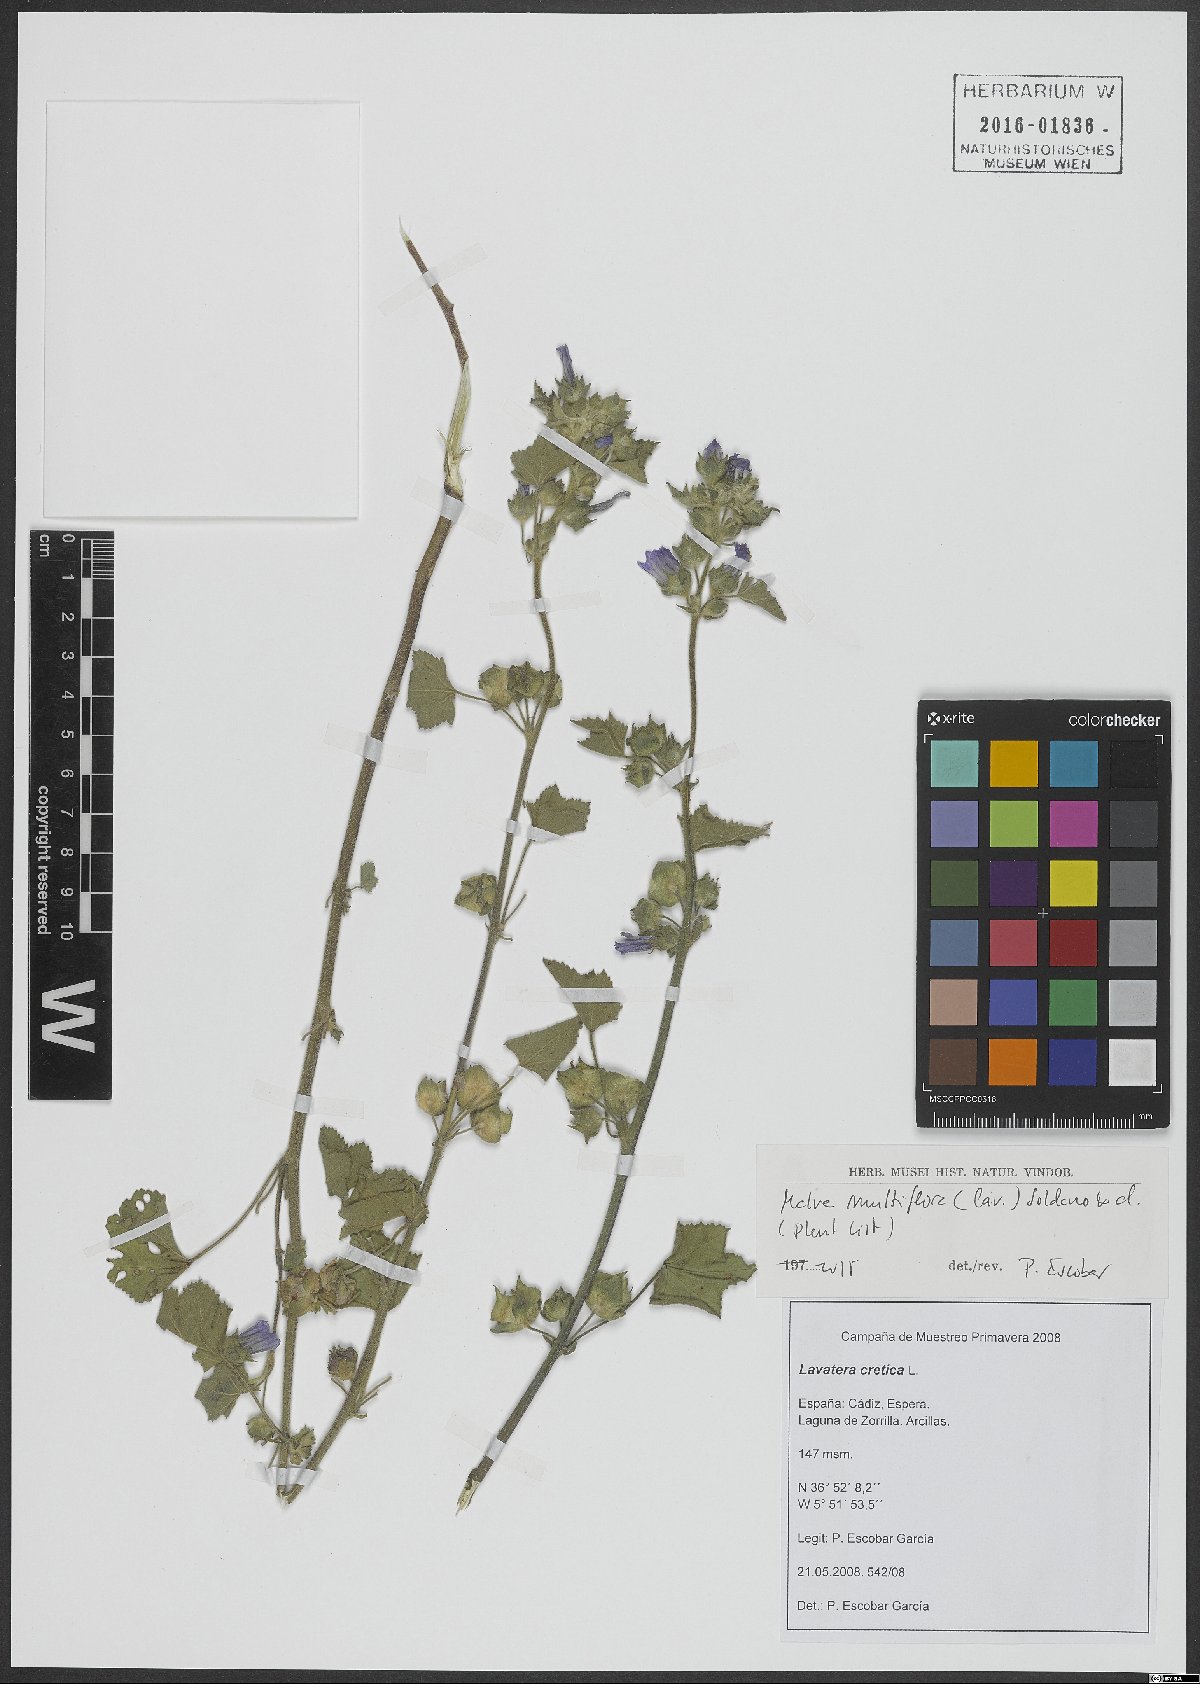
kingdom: Plantae
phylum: Tracheophyta
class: Magnoliopsida
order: Malvales
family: Malvaceae
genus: Malva
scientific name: Malva multiflora
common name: Cheeseweed
